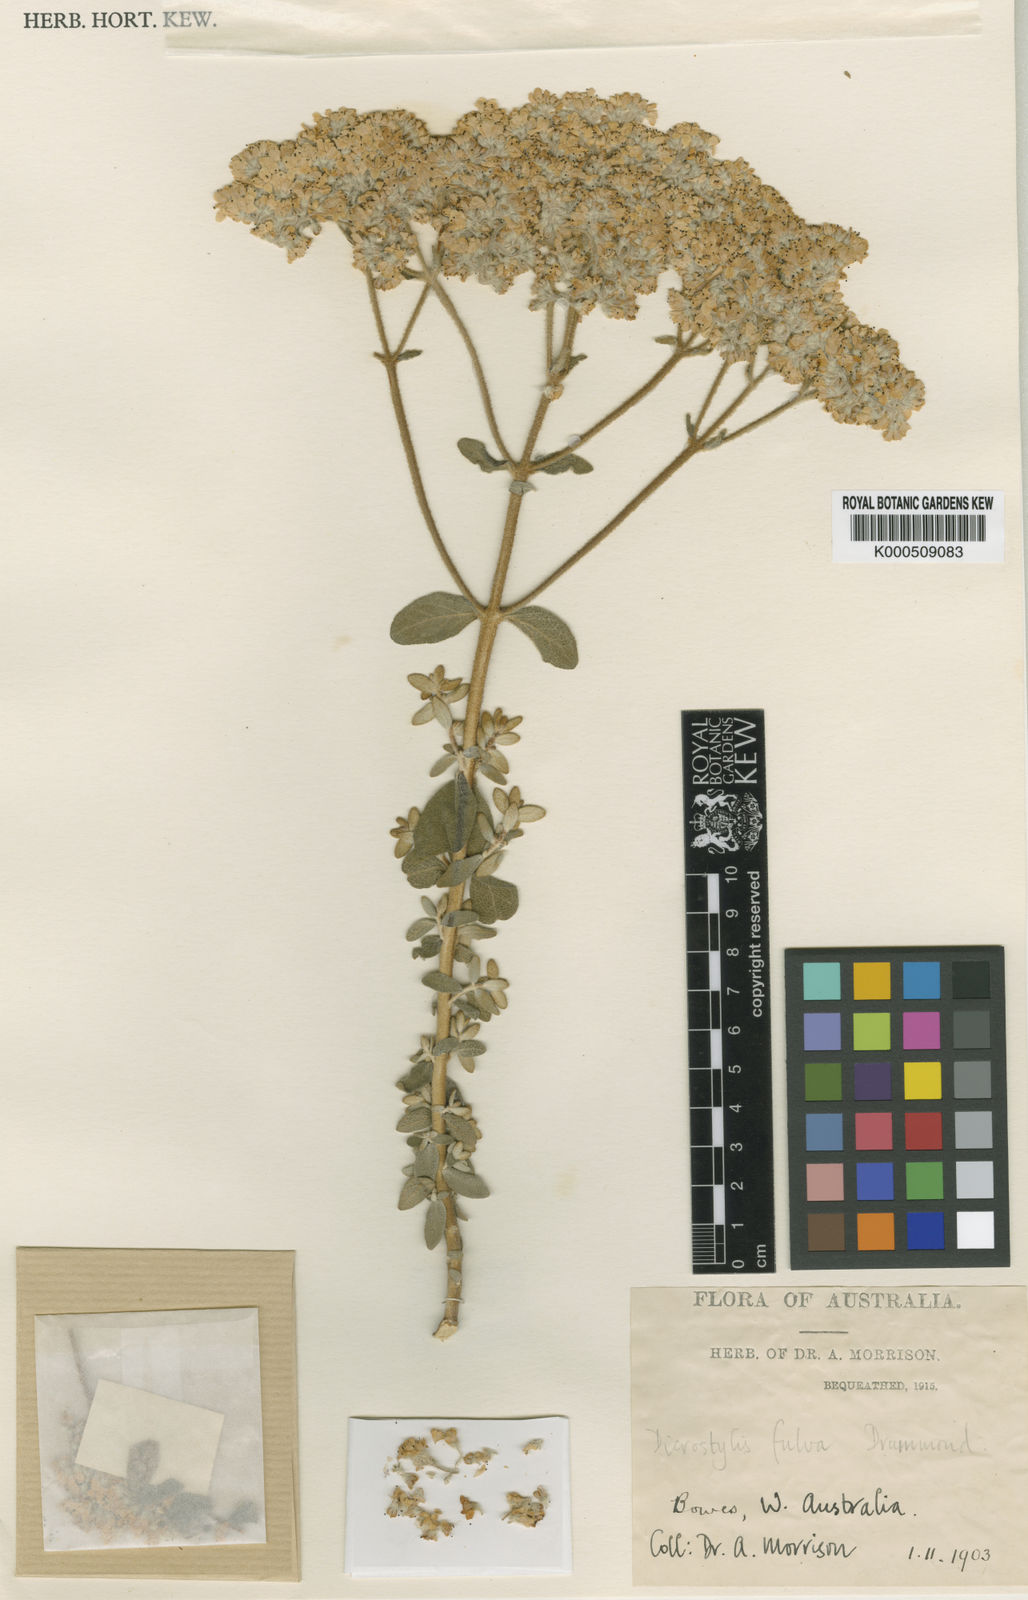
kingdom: Plantae
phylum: Tracheophyta
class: Magnoliopsida
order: Lamiales
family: Lamiaceae
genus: Dicrastylis
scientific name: Dicrastylis fulva
